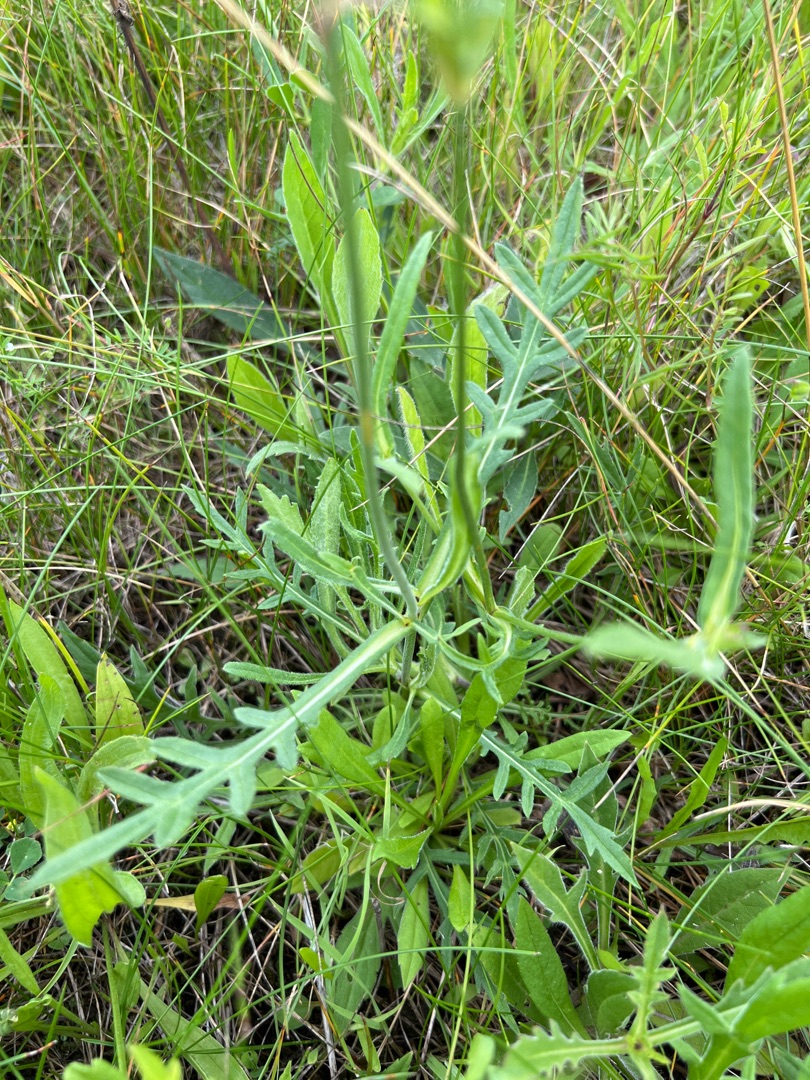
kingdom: Plantae
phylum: Tracheophyta
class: Magnoliopsida
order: Dipsacales
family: Caprifoliaceae
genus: Knautia
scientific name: Knautia arvensis
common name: Blåhat
